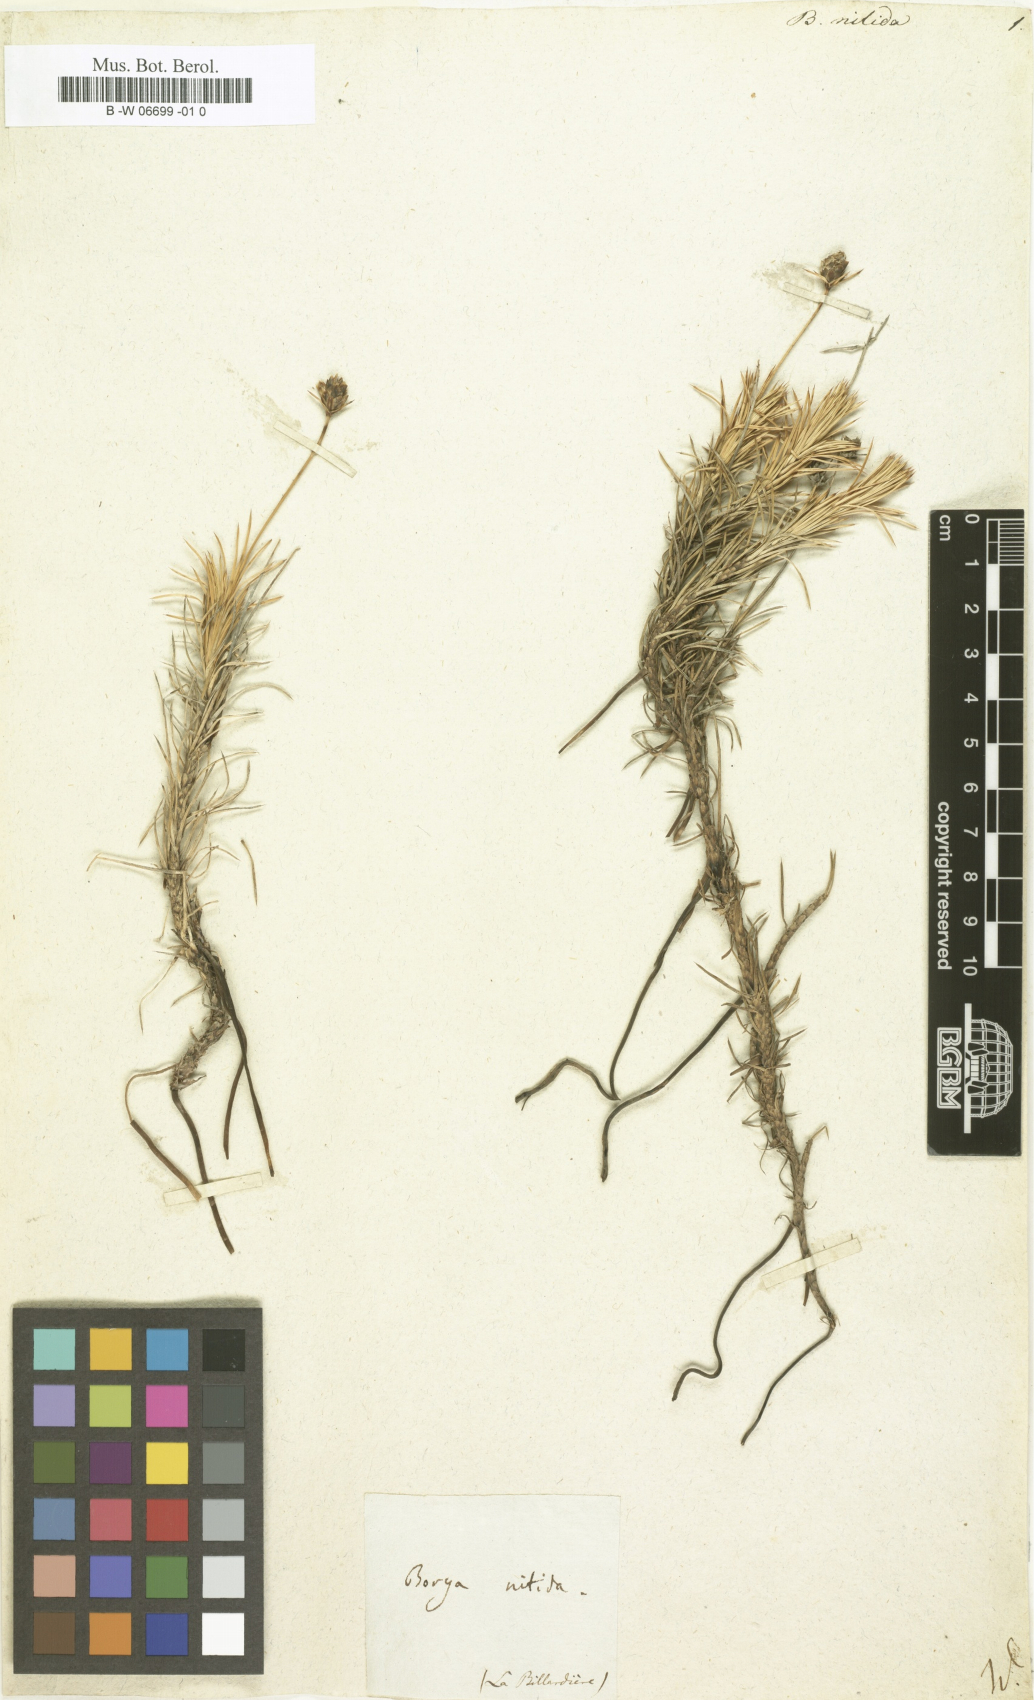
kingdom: Plantae
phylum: Tracheophyta
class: Liliopsida
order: Asparagales
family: Boryaceae
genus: Borya
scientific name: Borya nitida
